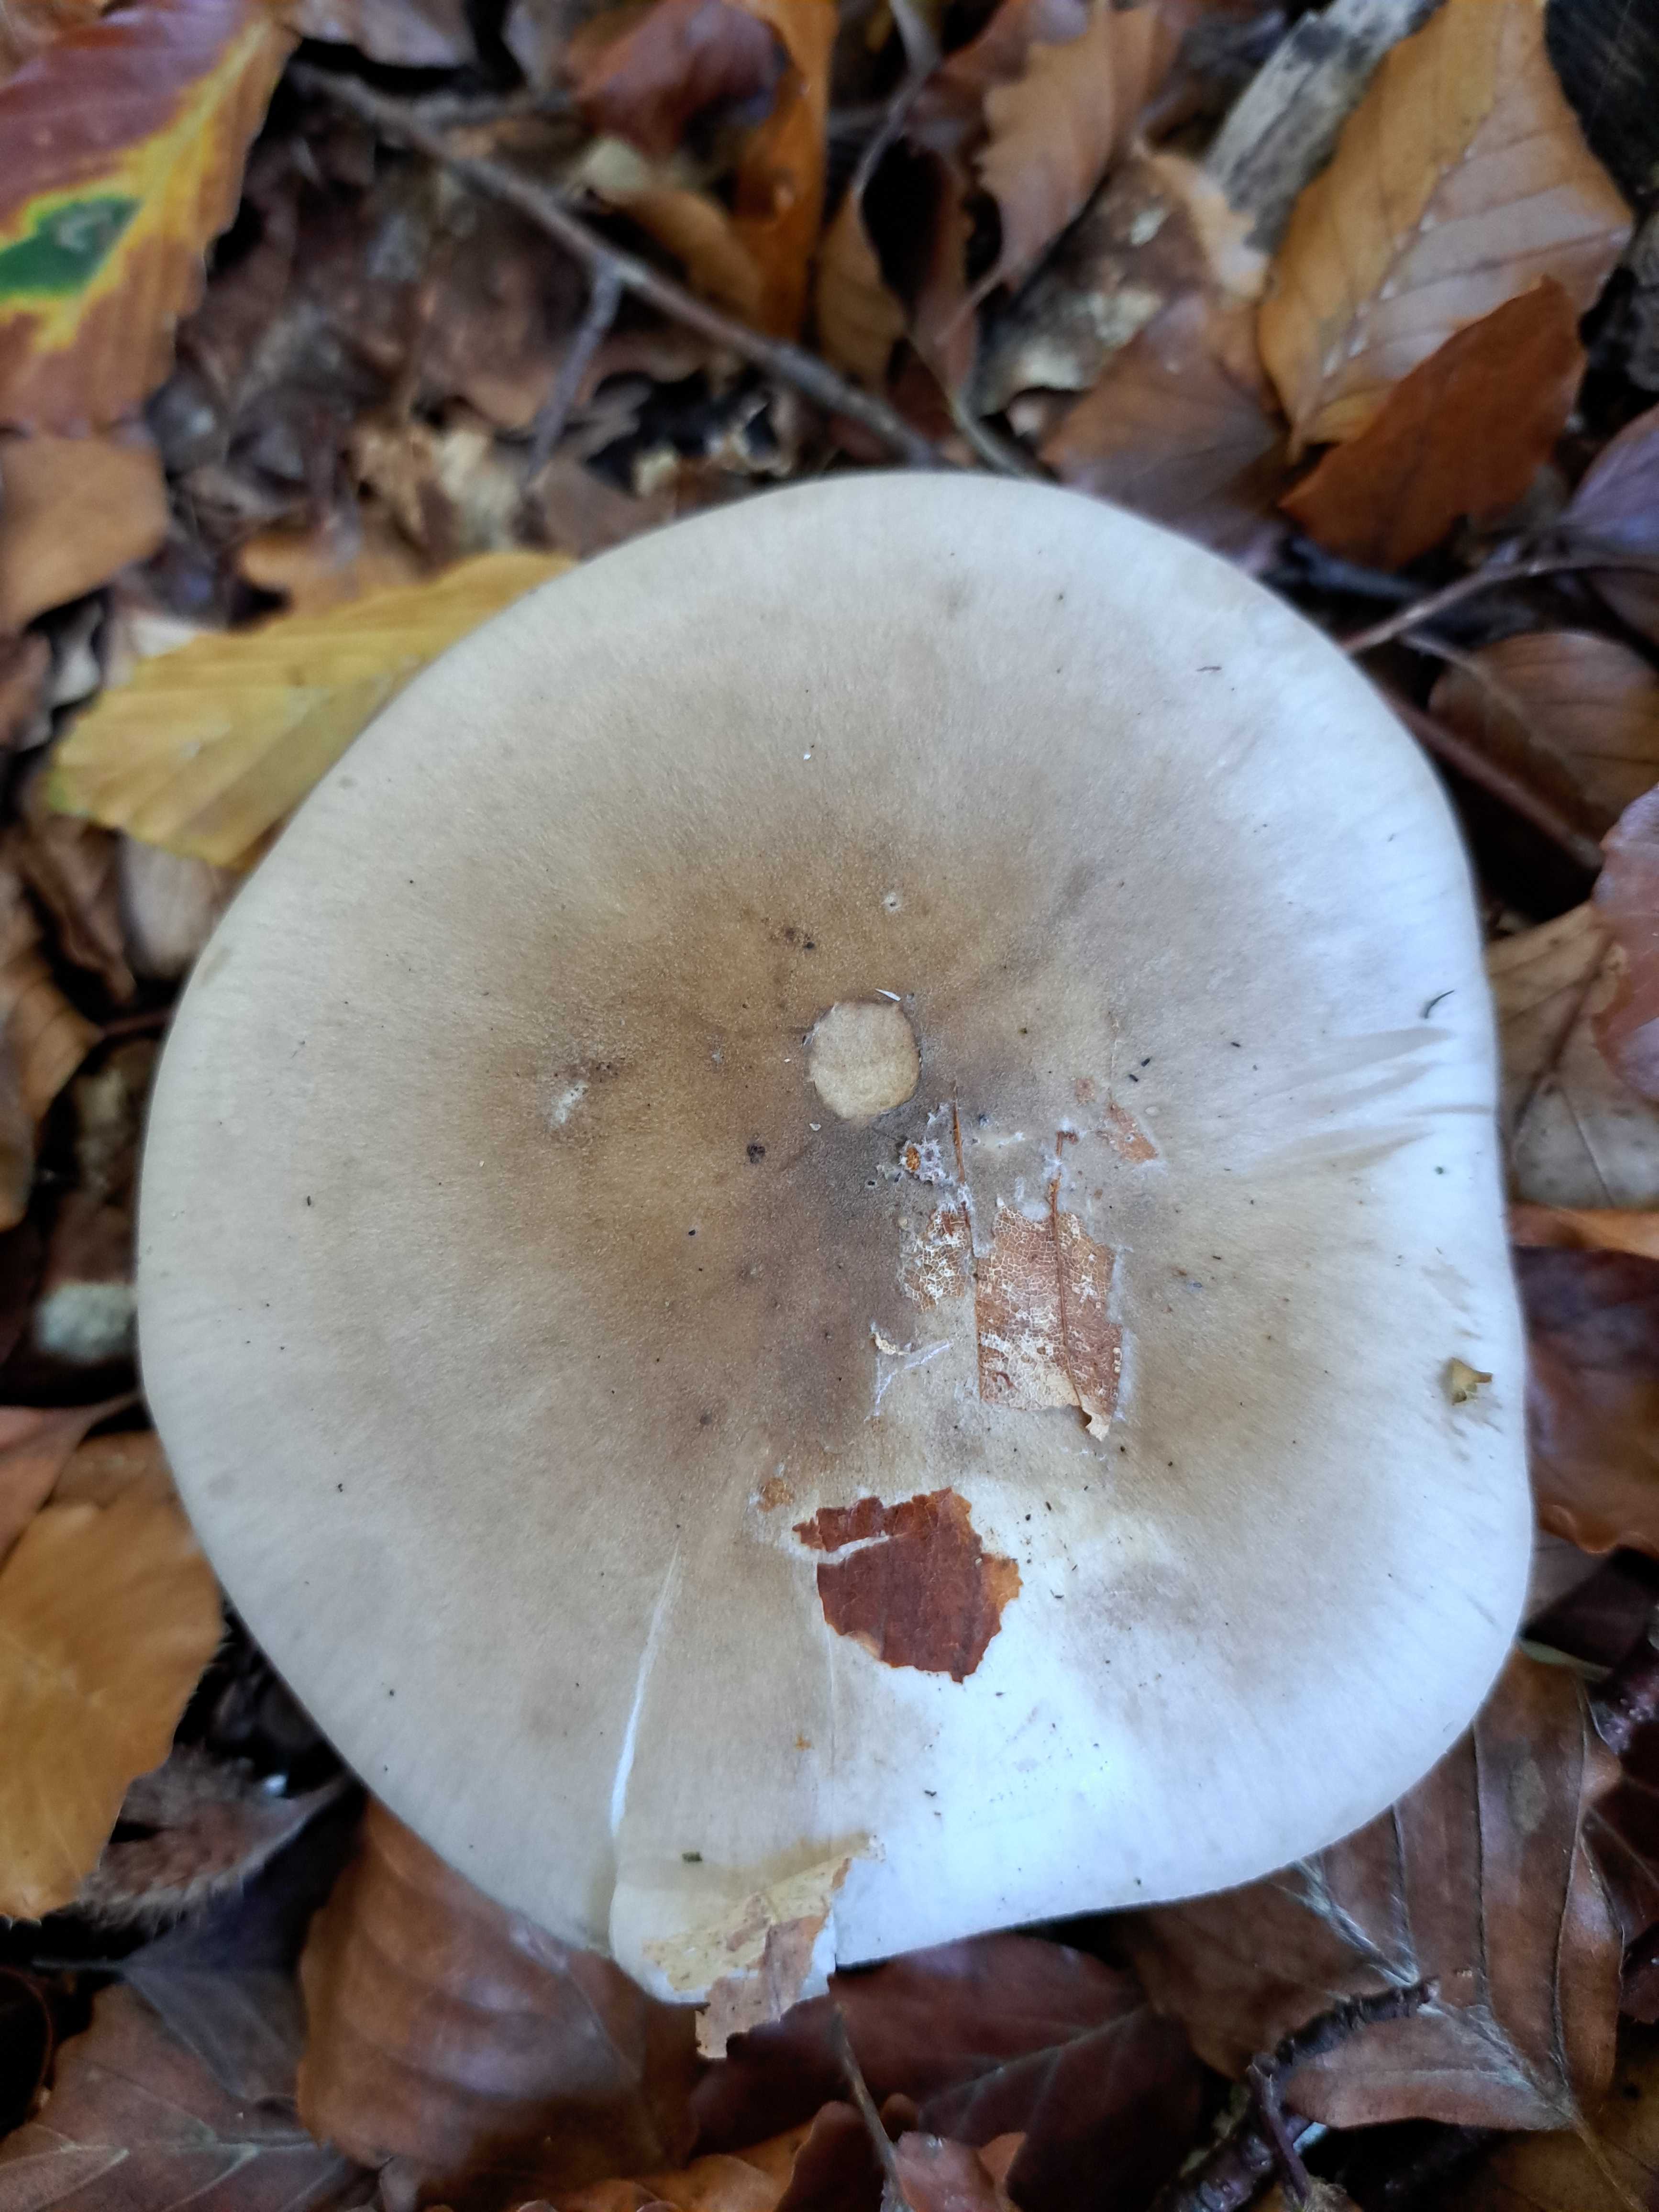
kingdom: Fungi
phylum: Basidiomycota
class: Agaricomycetes
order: Agaricales
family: Tricholomataceae
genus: Clitocybe
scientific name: Clitocybe nebularis
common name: tåge-tragthat
